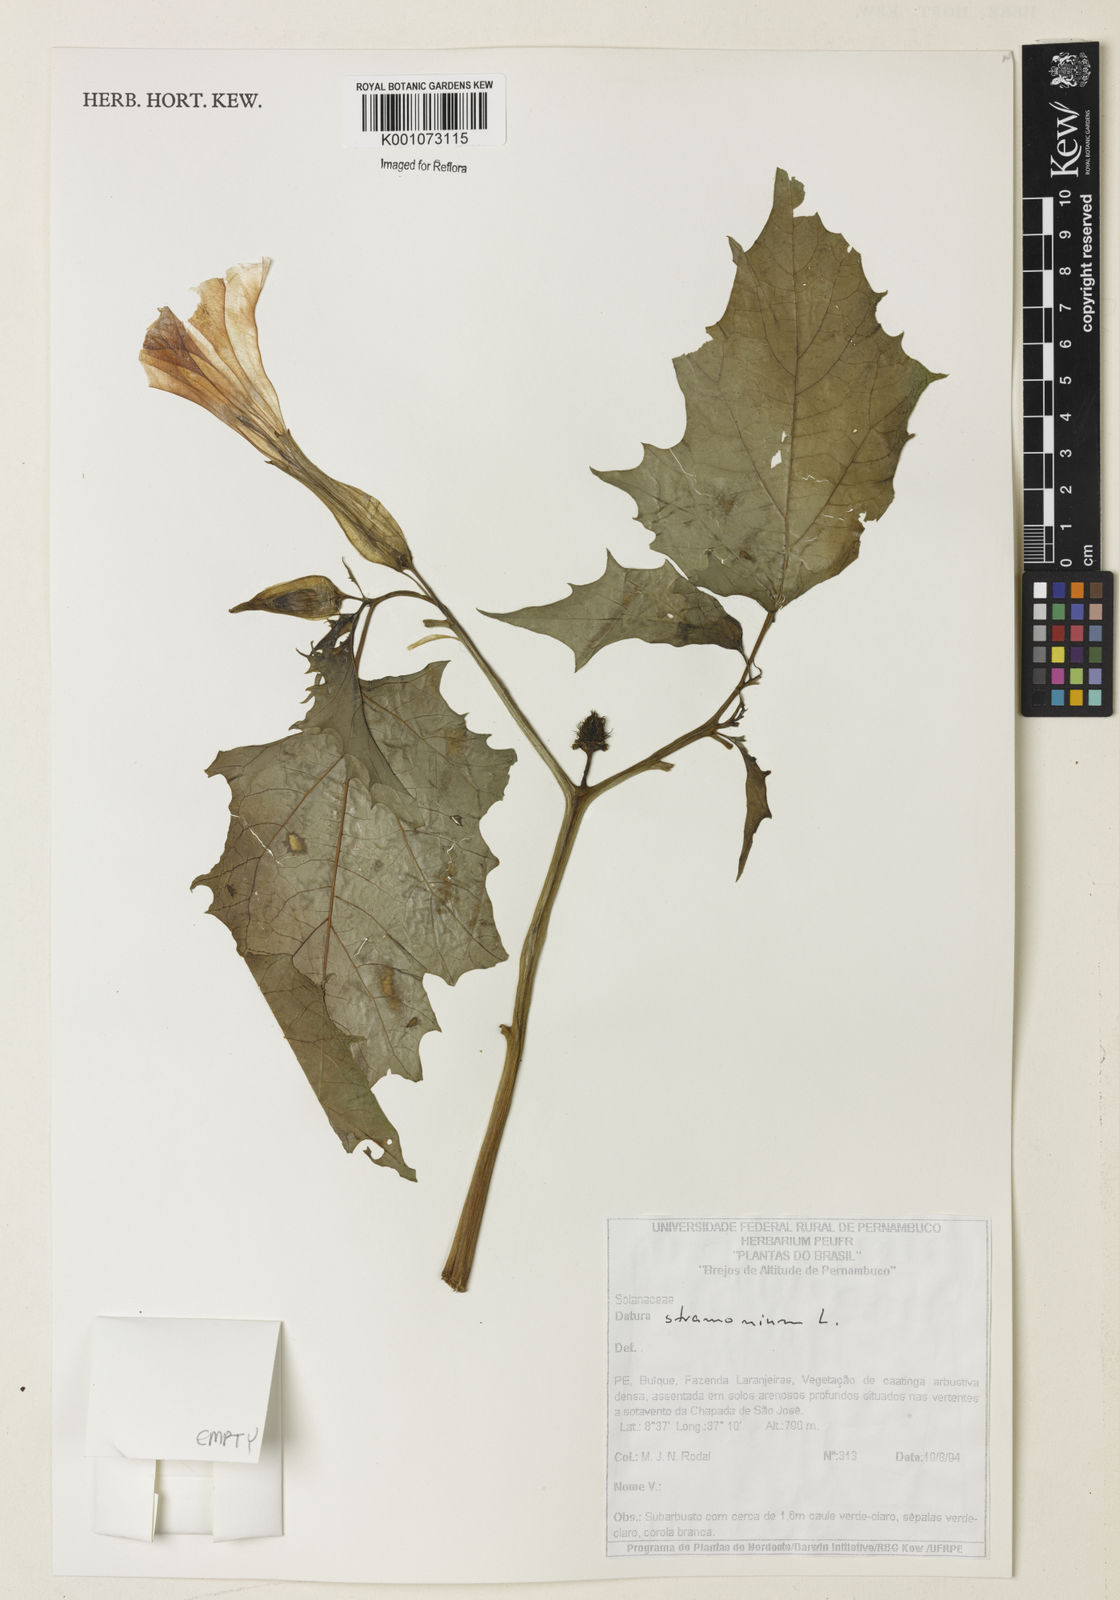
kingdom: Plantae
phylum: Tracheophyta
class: Magnoliopsida
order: Solanales
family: Solanaceae
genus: Datura
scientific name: Datura stramonium
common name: Thorn-apple
